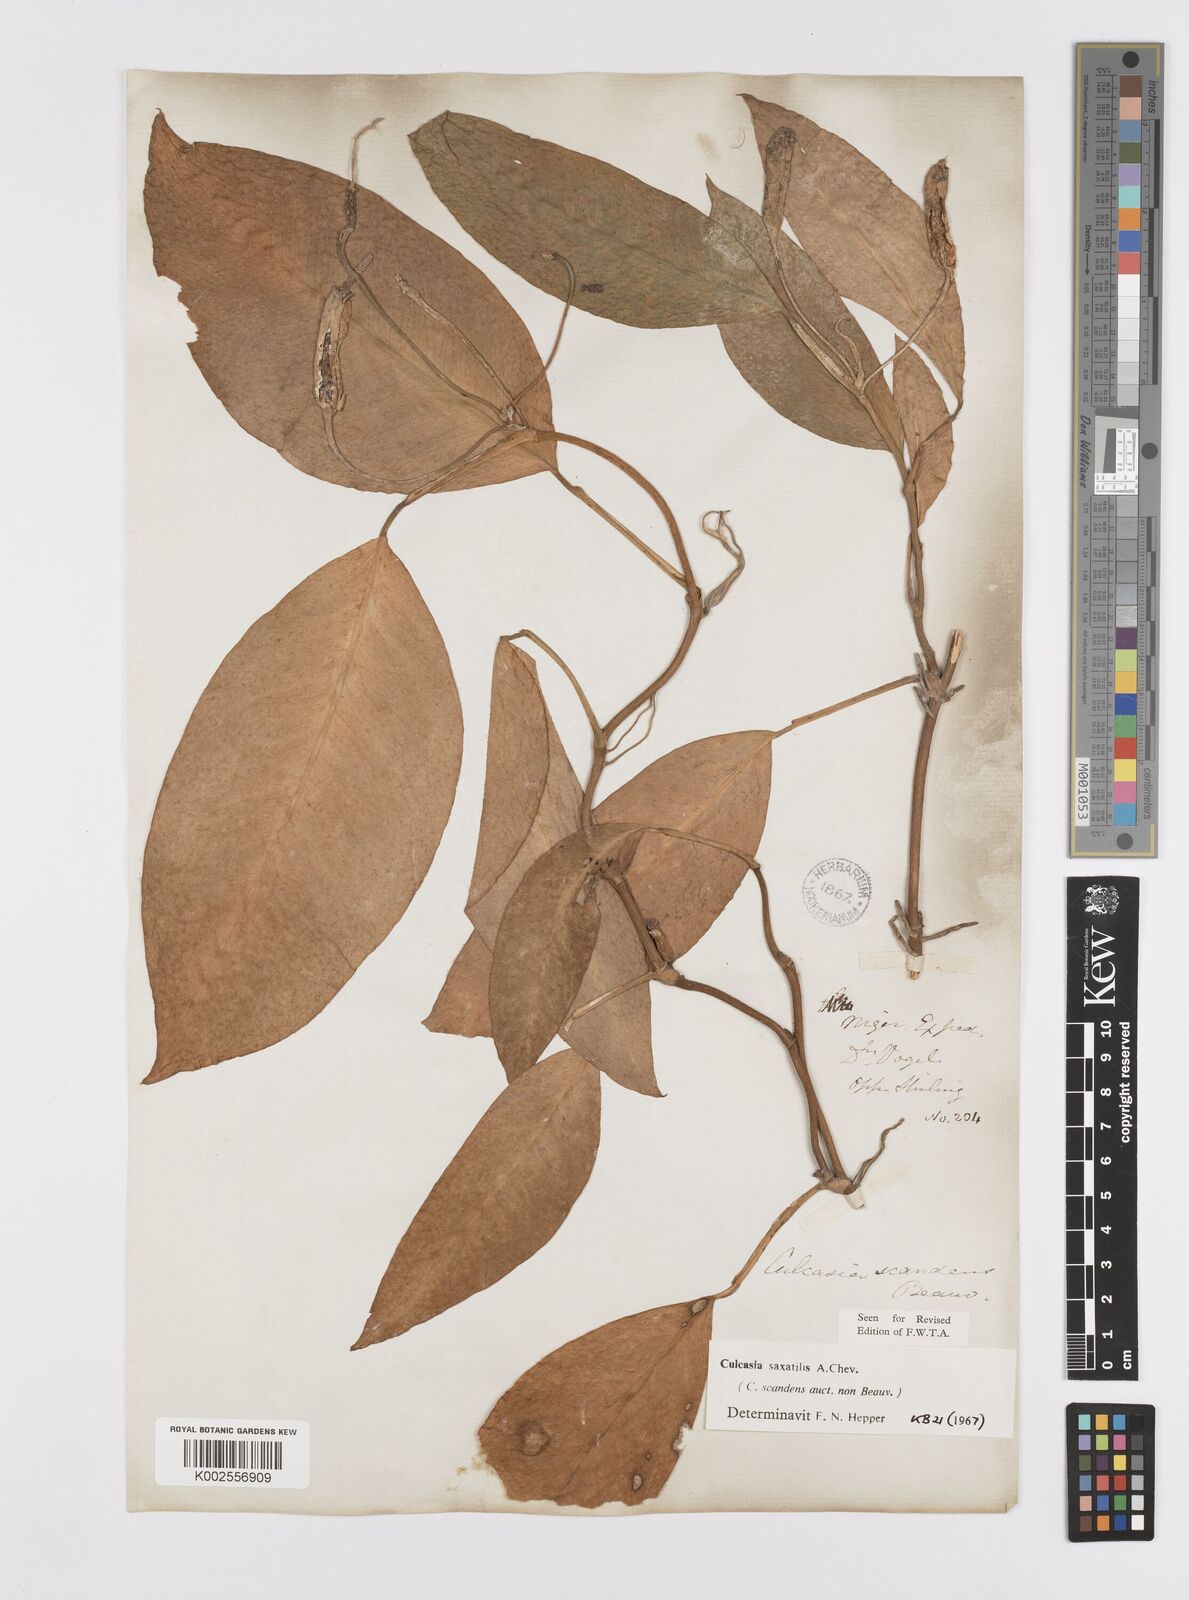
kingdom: Plantae
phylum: Tracheophyta
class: Liliopsida
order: Alismatales
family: Araceae
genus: Culcasia
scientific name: Culcasia scandens
